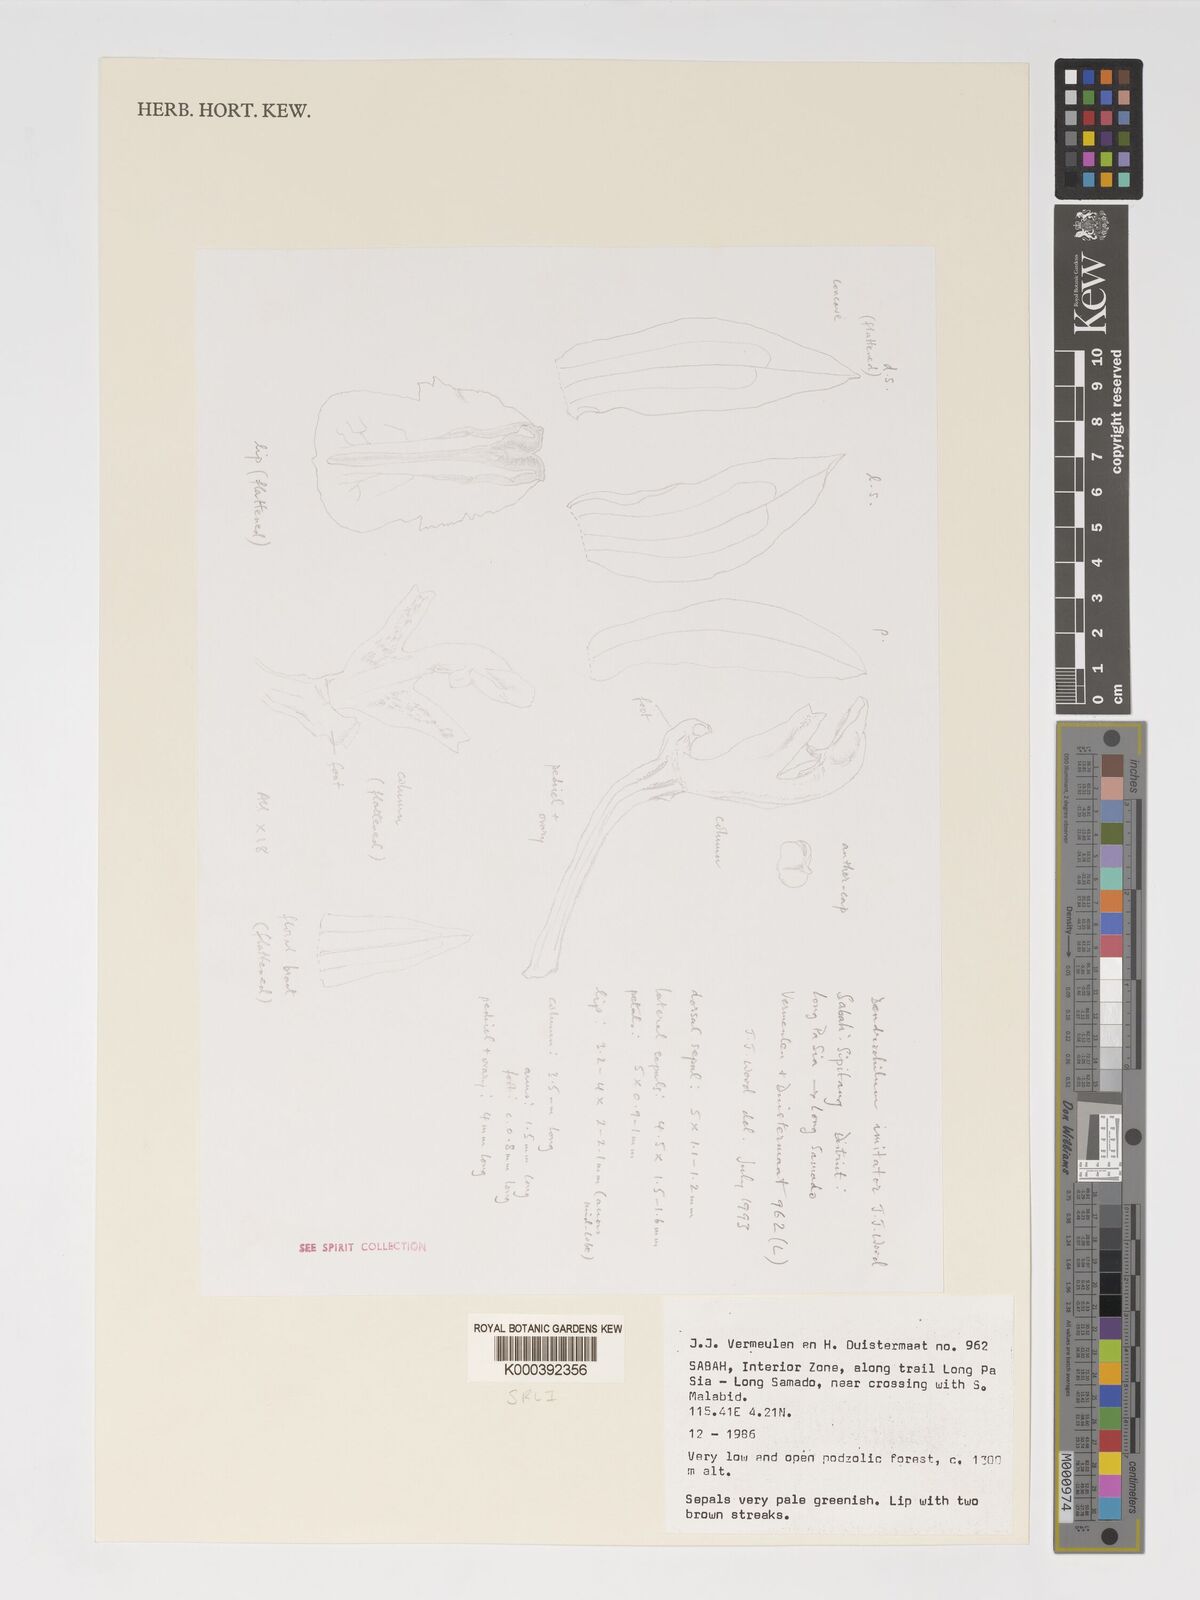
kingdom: Plantae
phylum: Tracheophyta
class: Liliopsida
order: Asparagales
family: Orchidaceae
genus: Coelogyne
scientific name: Coelogyne imitator
